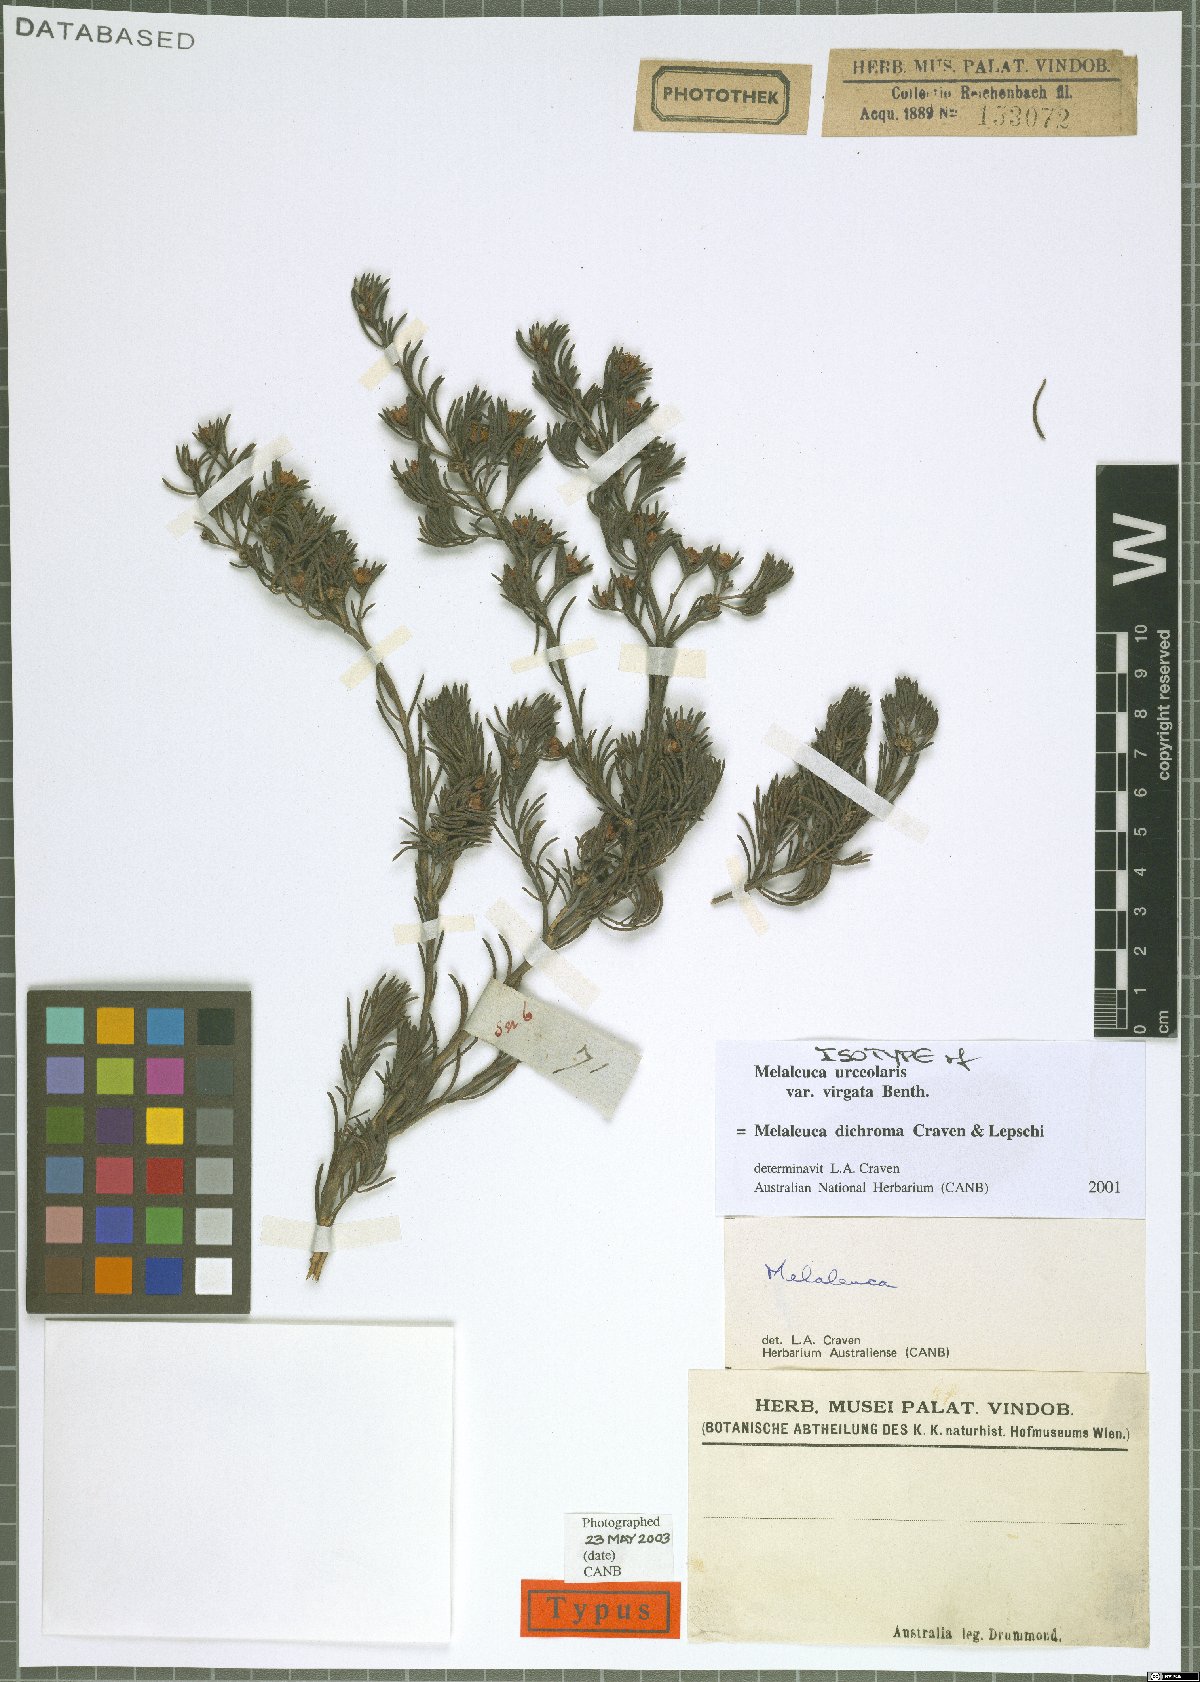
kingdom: Plantae
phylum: Tracheophyta
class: Magnoliopsida
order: Myrtales
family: Myrtaceae
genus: Melaleuca
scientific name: Melaleuca dichroma
